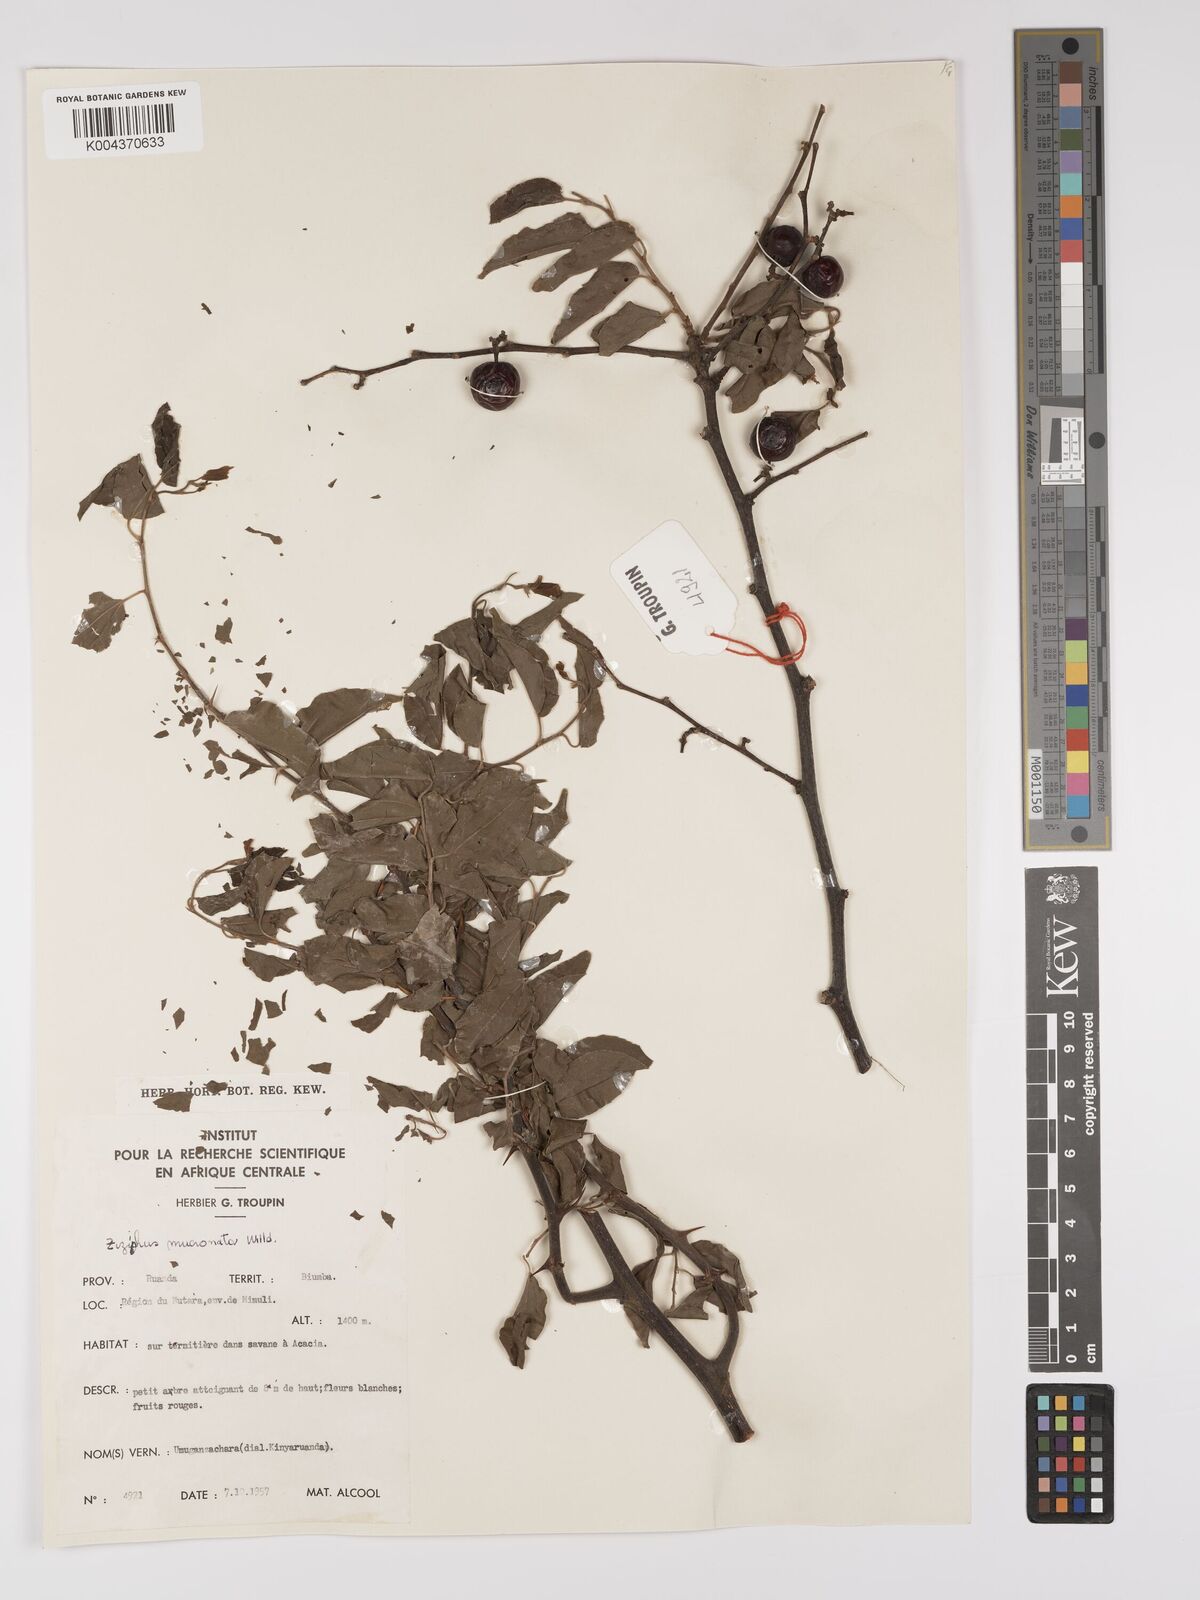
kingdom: Plantae
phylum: Tracheophyta
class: Magnoliopsida
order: Rosales
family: Rhamnaceae
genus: Ziziphus
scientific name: Ziziphus mucronata
